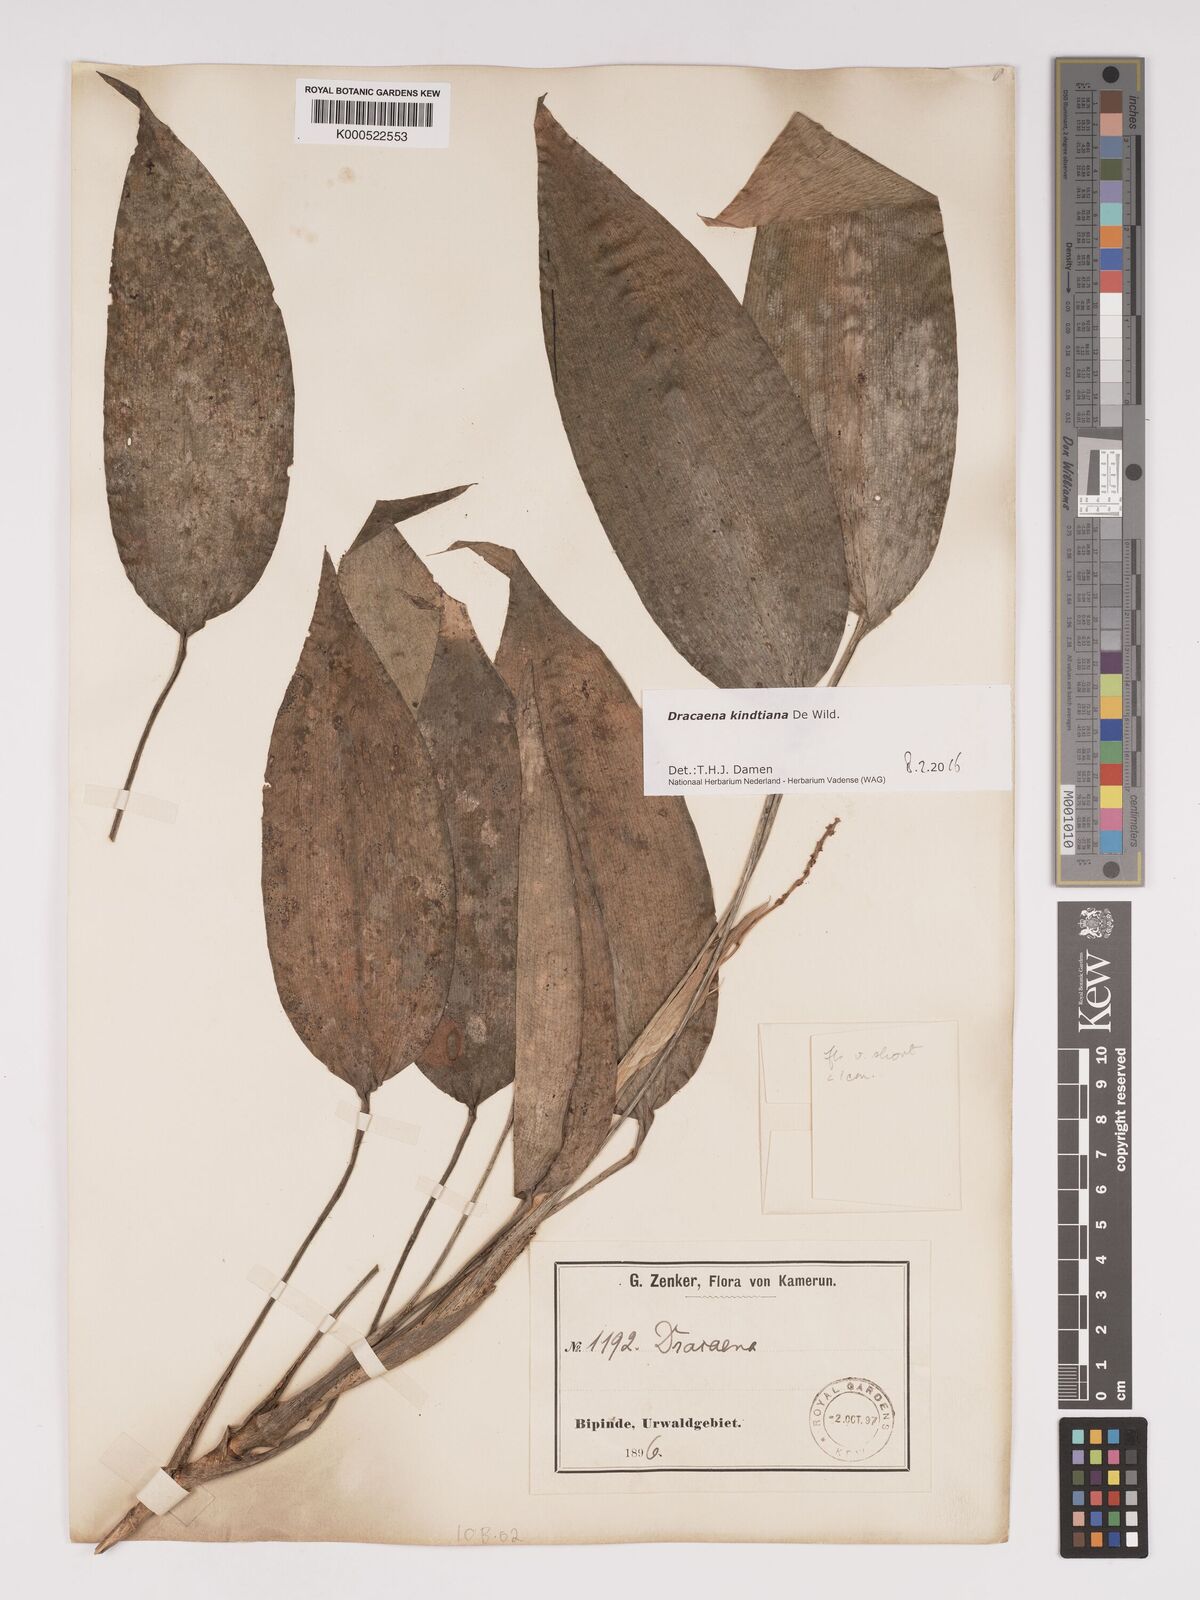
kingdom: Plantae
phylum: Tracheophyta
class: Liliopsida
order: Asparagales
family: Asparagaceae
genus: Dracaena
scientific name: Dracaena kindtiana
